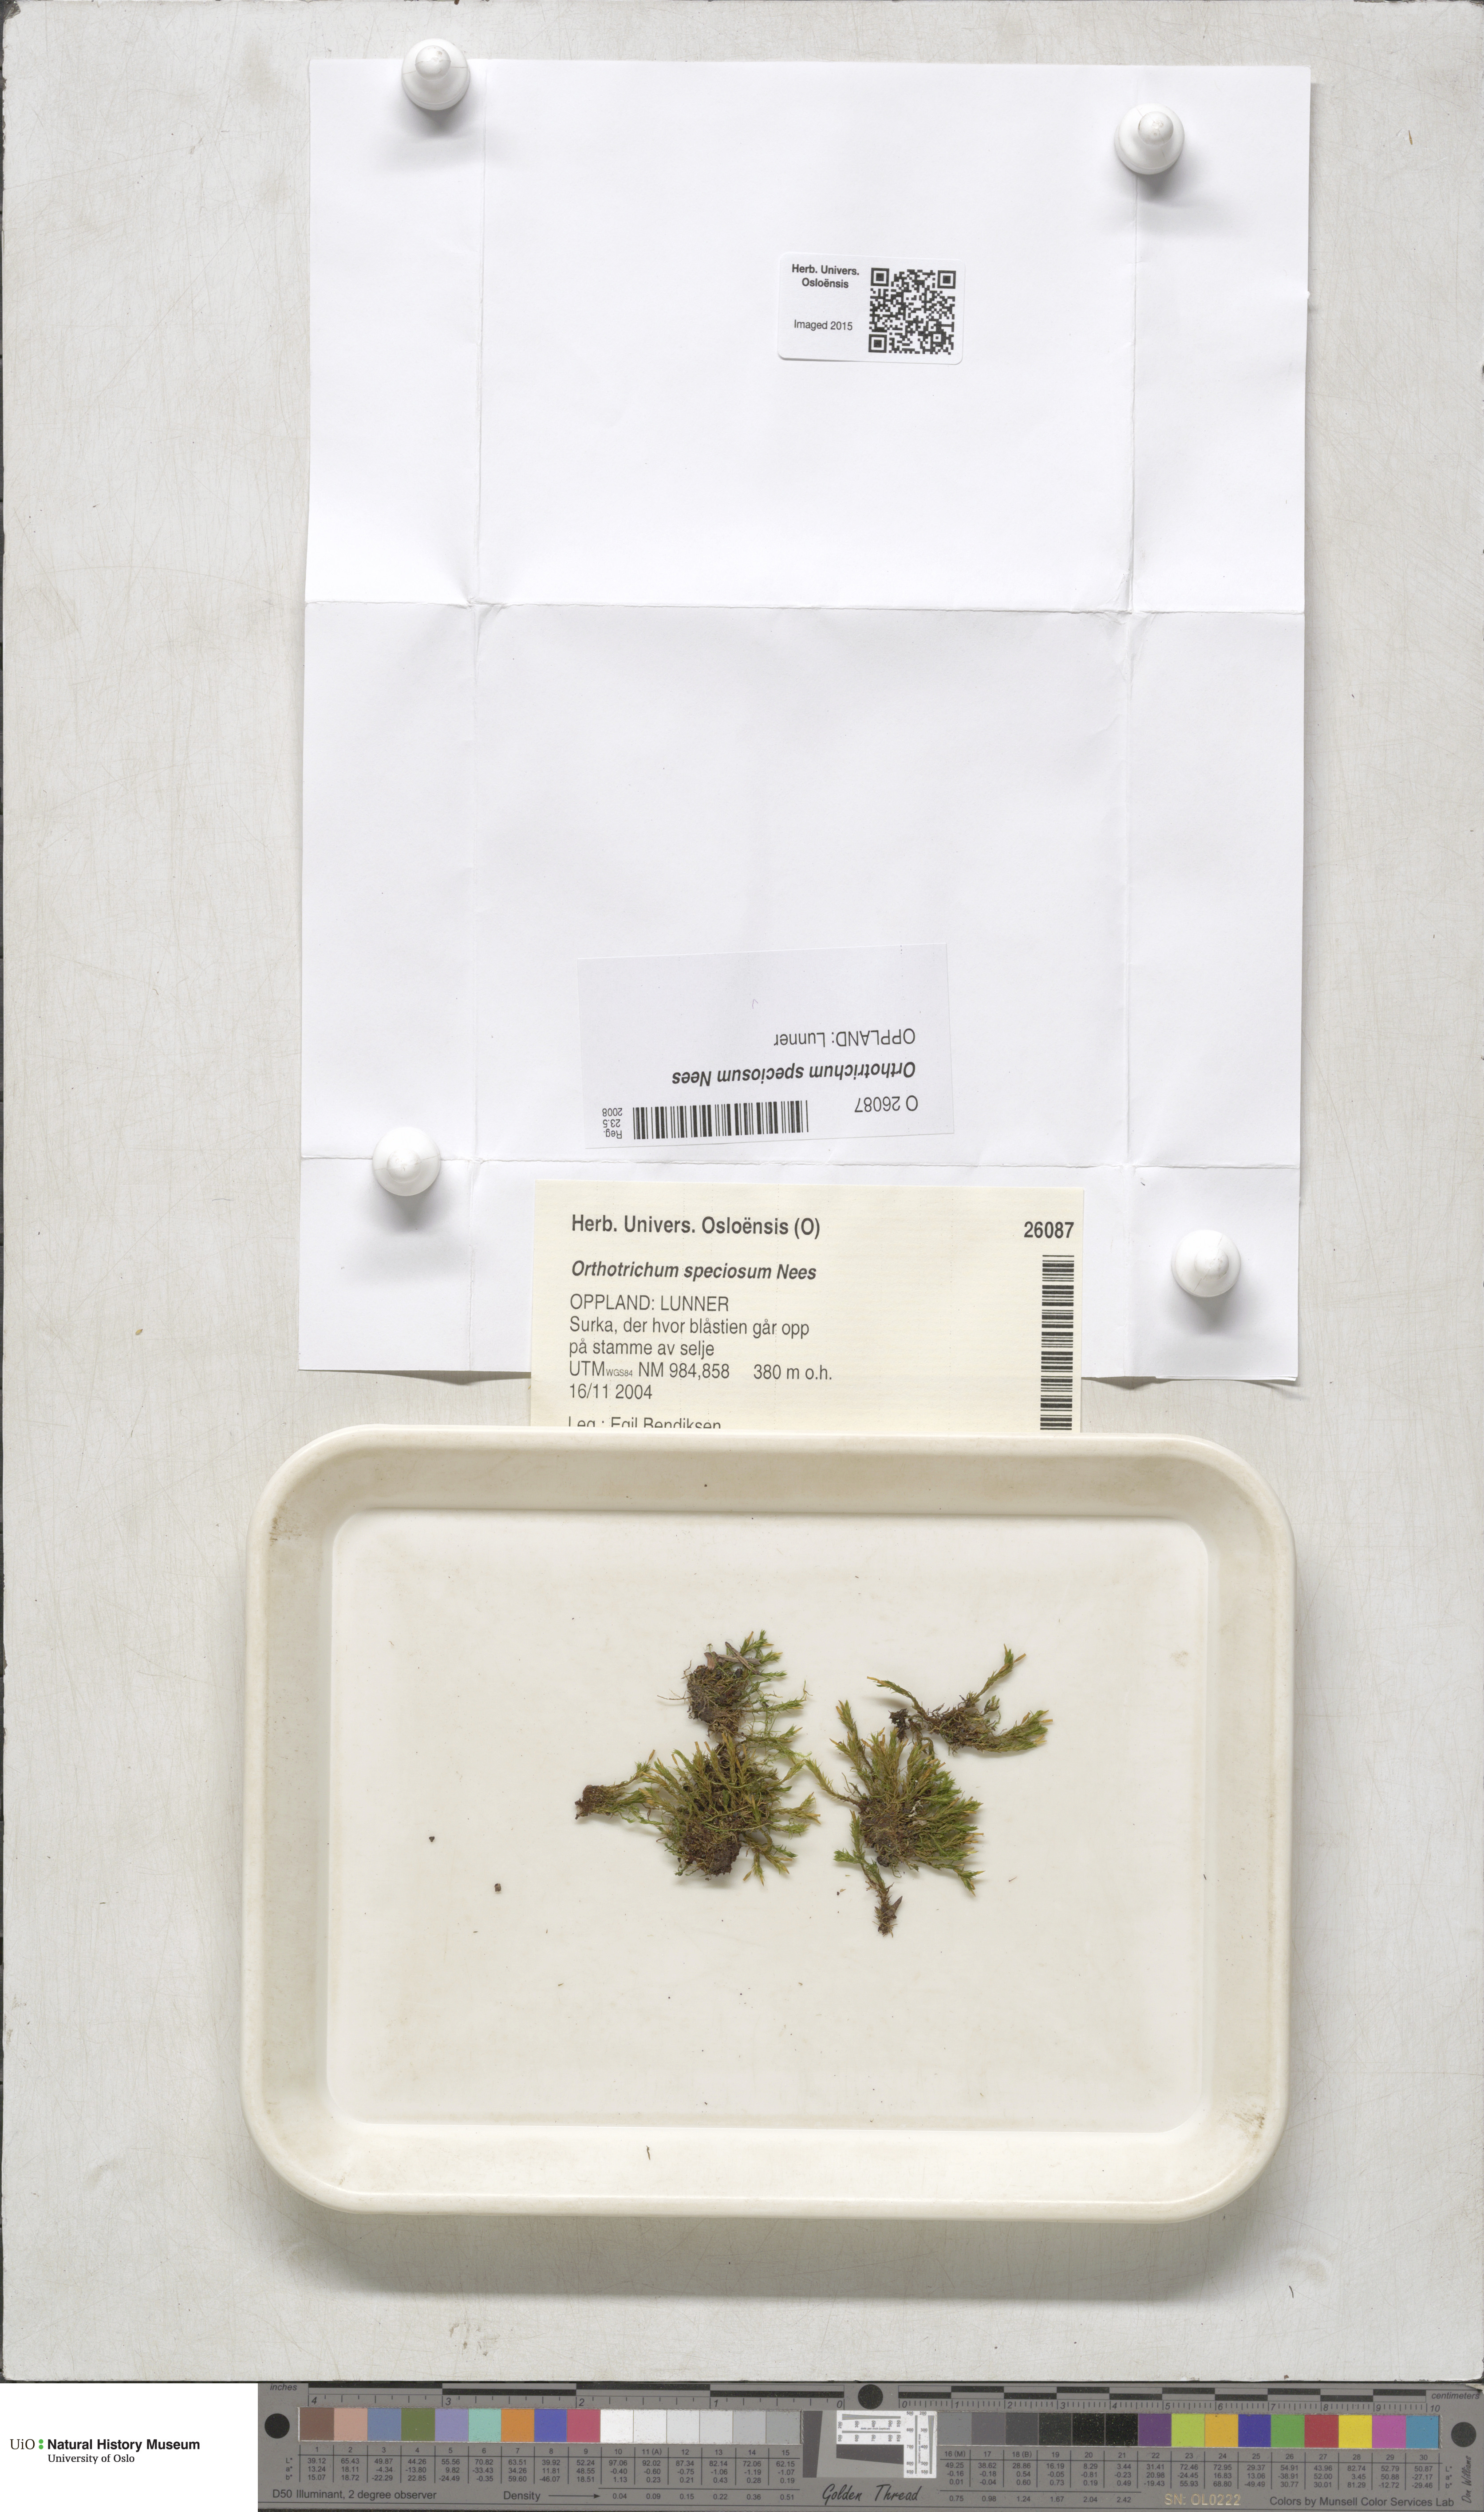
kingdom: Plantae
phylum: Bryophyta
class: Bryopsida
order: Orthotrichales
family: Orthotrichaceae
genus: Lewinskya
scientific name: Lewinskya speciosa
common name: Showy bristle moss
